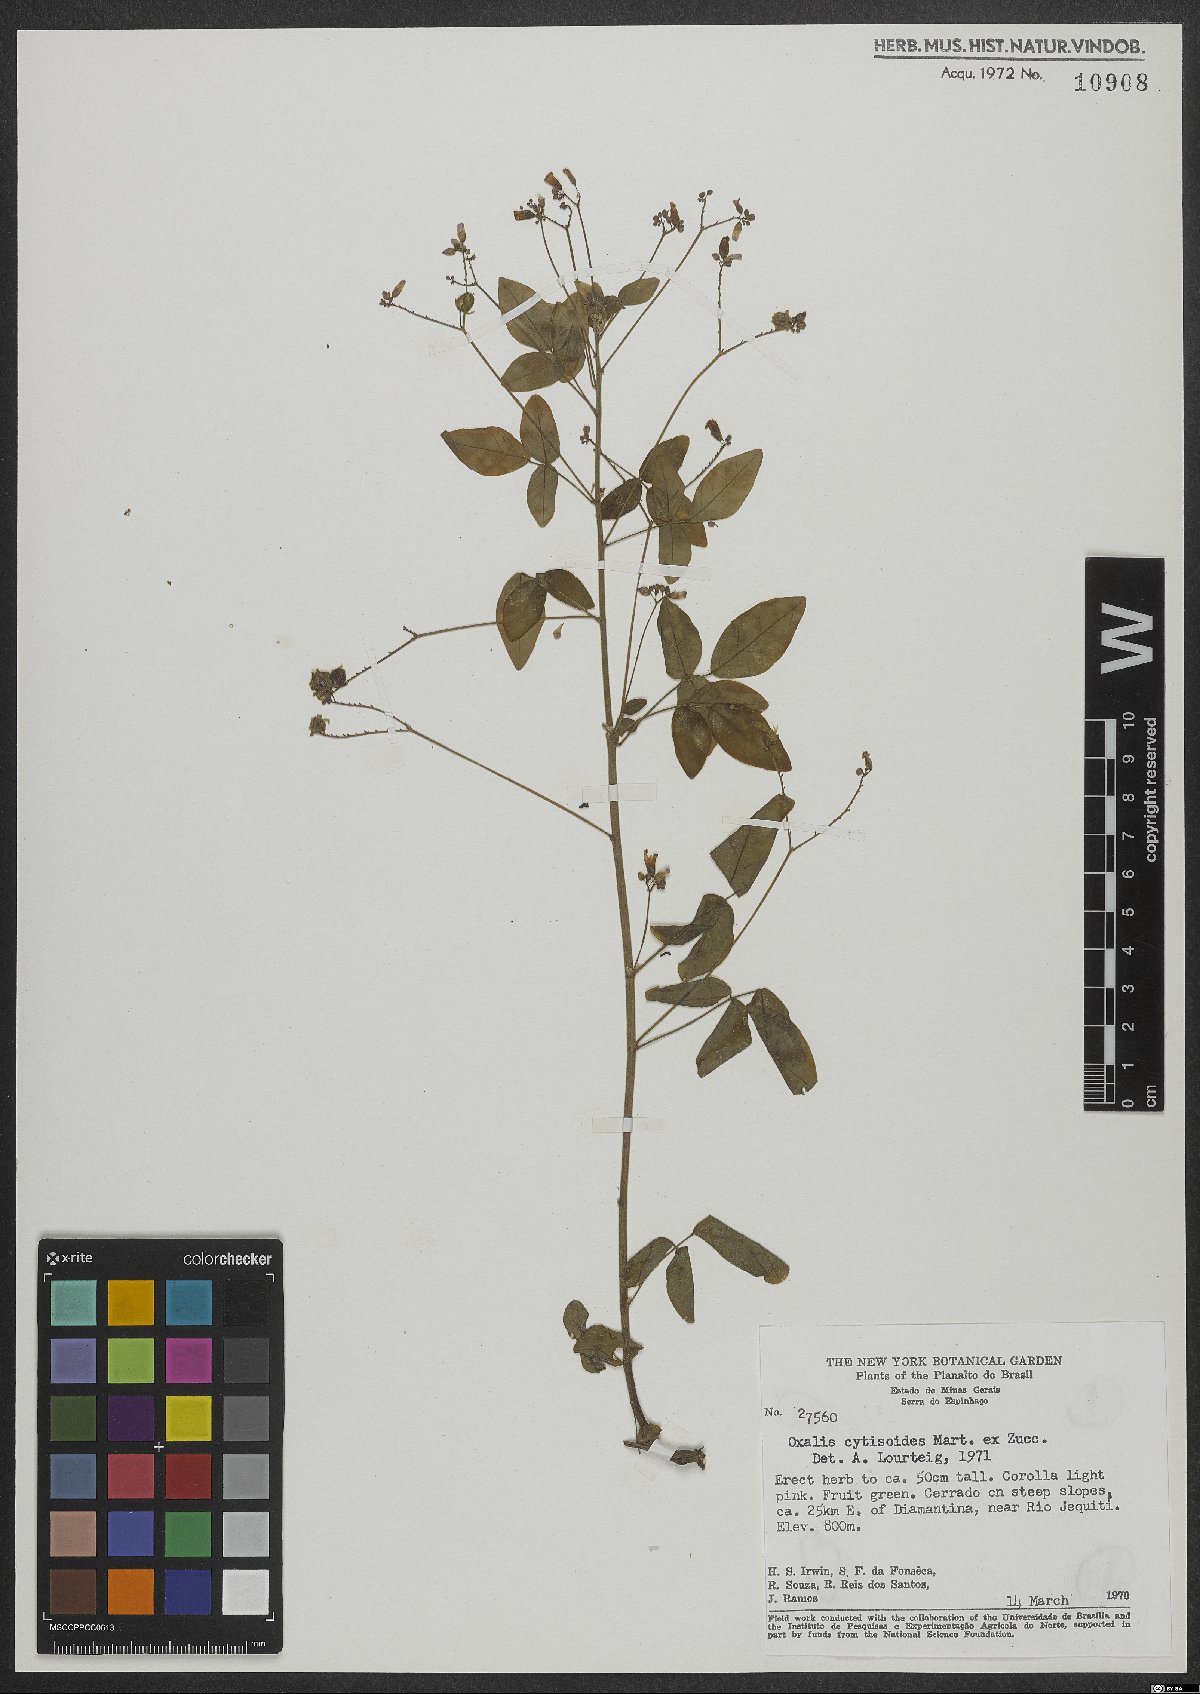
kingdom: Plantae
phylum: Tracheophyta
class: Magnoliopsida
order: Oxalidales
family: Oxalidaceae
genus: Oxalis
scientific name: Oxalis cytisoides
